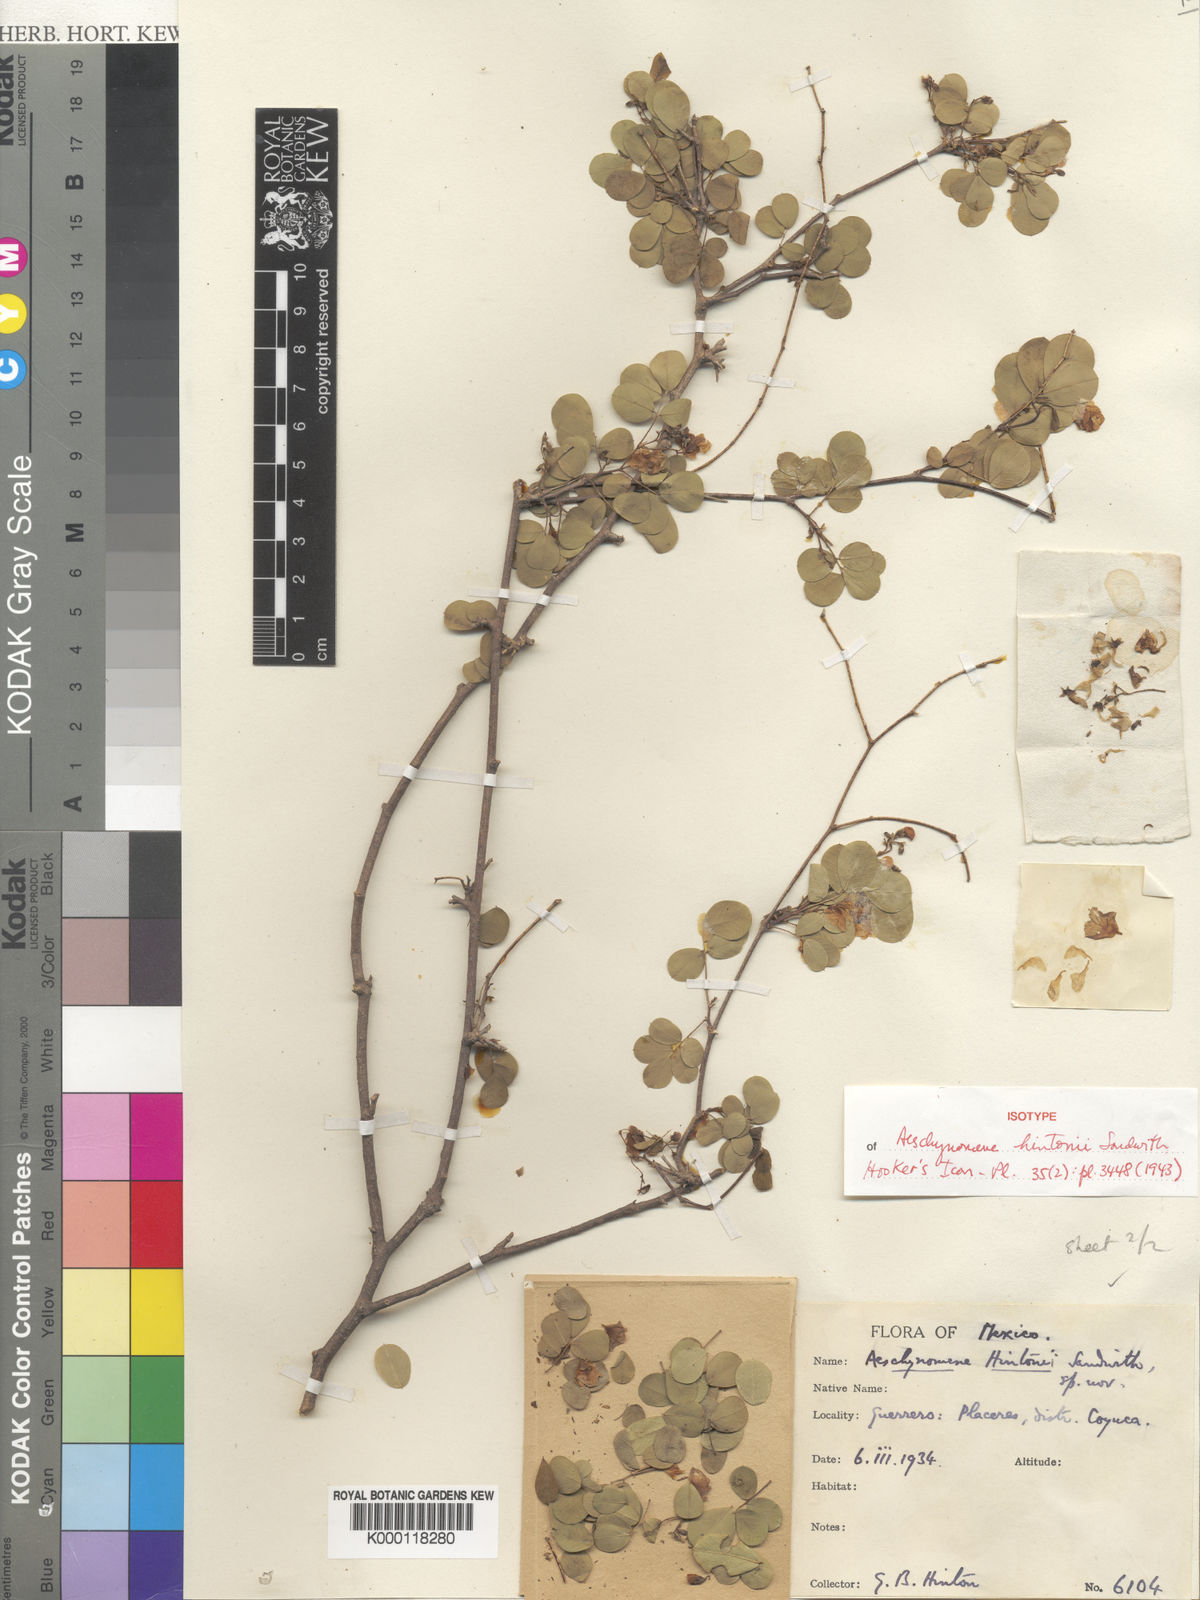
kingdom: Plantae
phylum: Tracheophyta
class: Magnoliopsida
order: Fabales
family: Fabaceae
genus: Ctenodon
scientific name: Ctenodon hintonii
